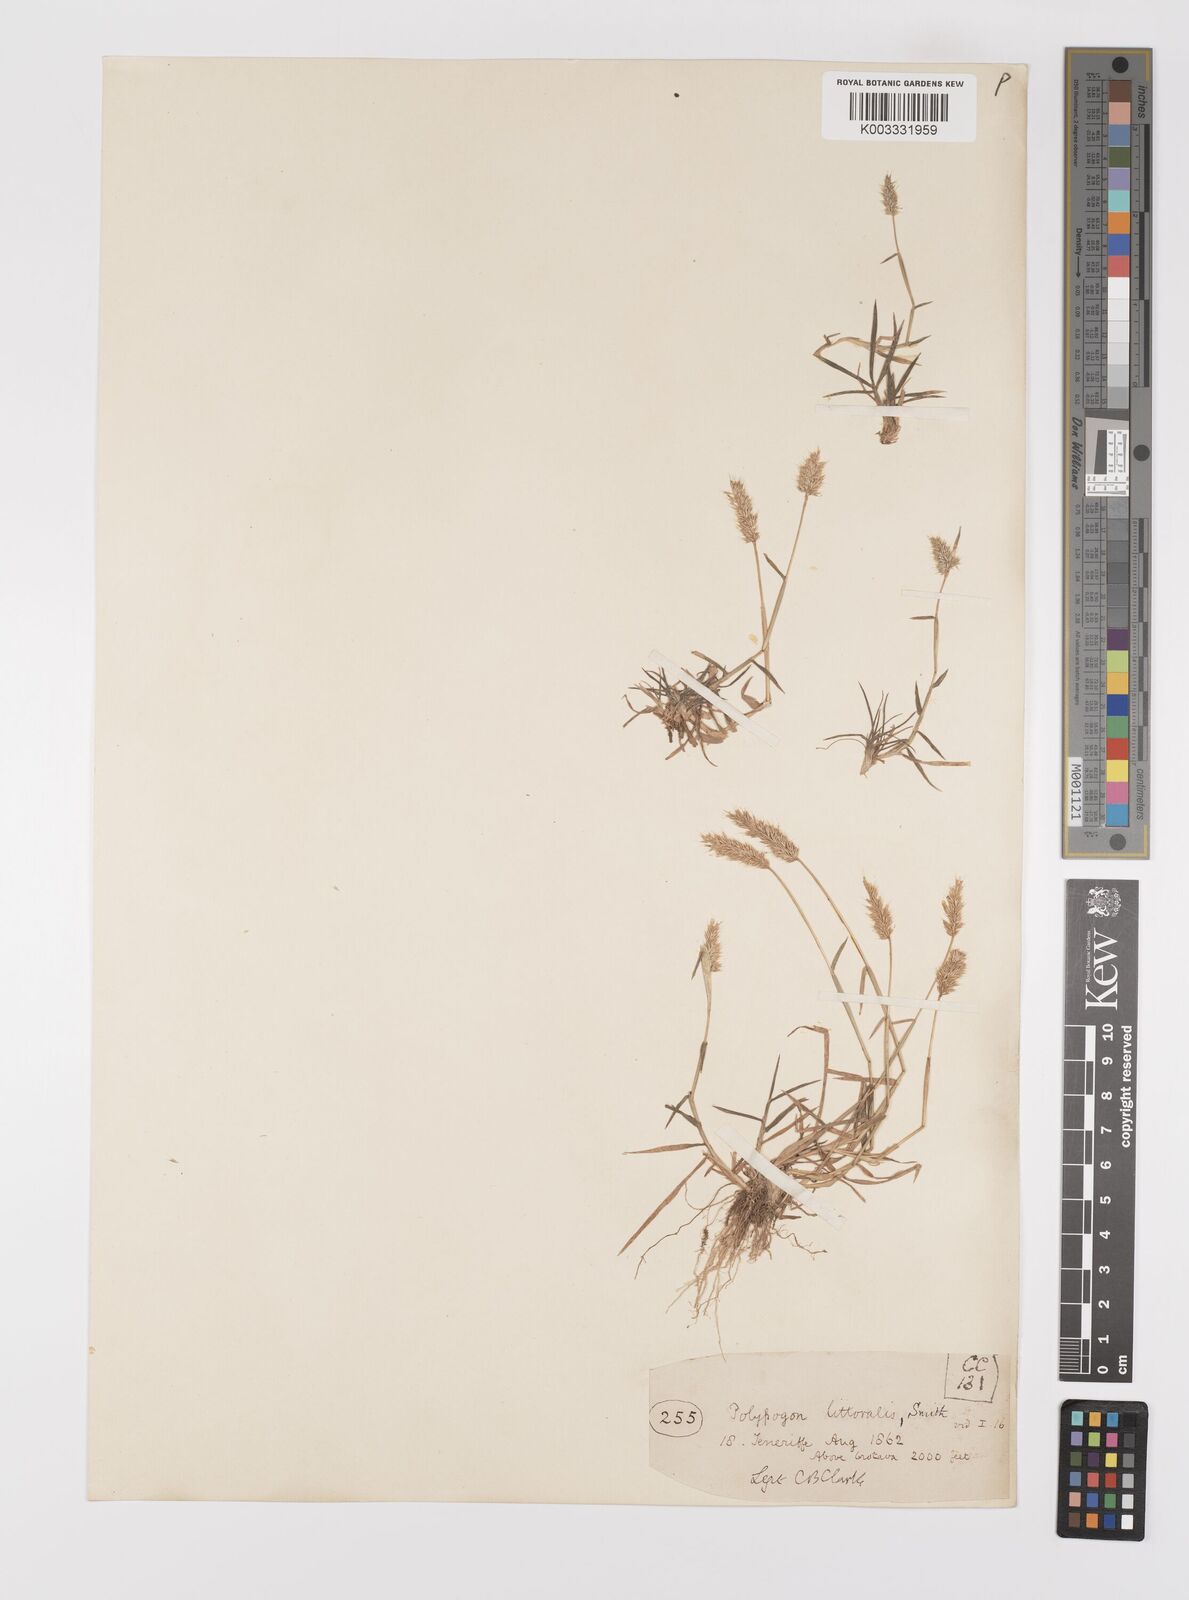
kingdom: Plantae
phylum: Tracheophyta
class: Liliopsida
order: Poales
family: Poaceae
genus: Polypogon
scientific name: Polypogon fugax
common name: Asia minor bluegrass
